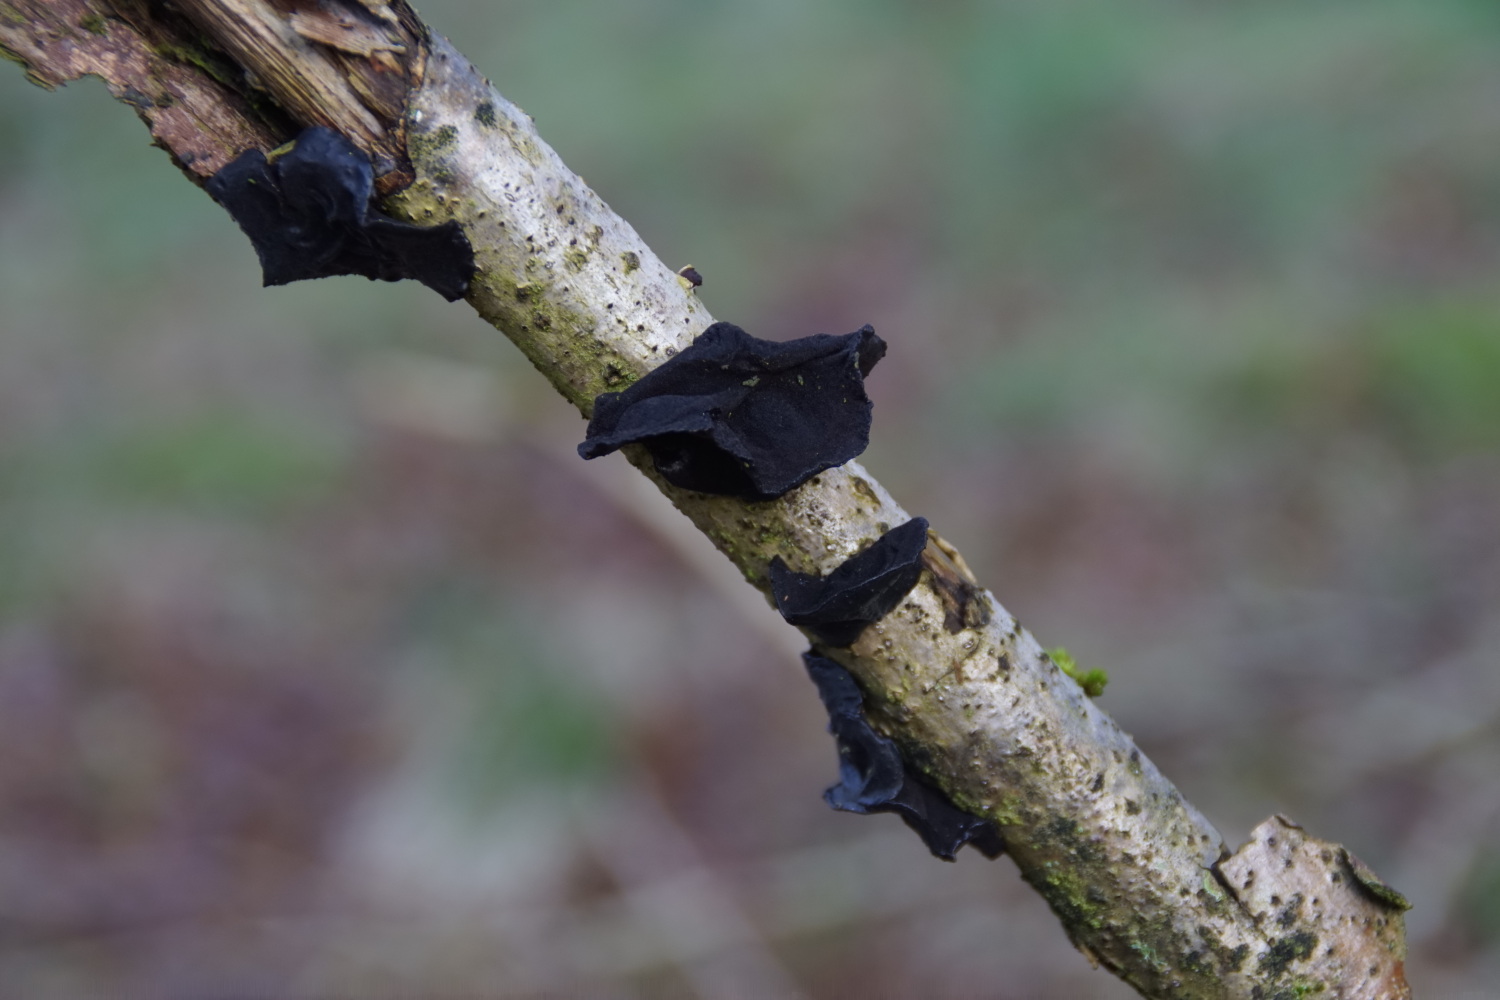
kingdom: Fungi
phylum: Basidiomycota
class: Agaricomycetes
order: Auriculariales
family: Auriculariaceae
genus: Exidia
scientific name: Exidia glandulosa
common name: ege-bævretop
